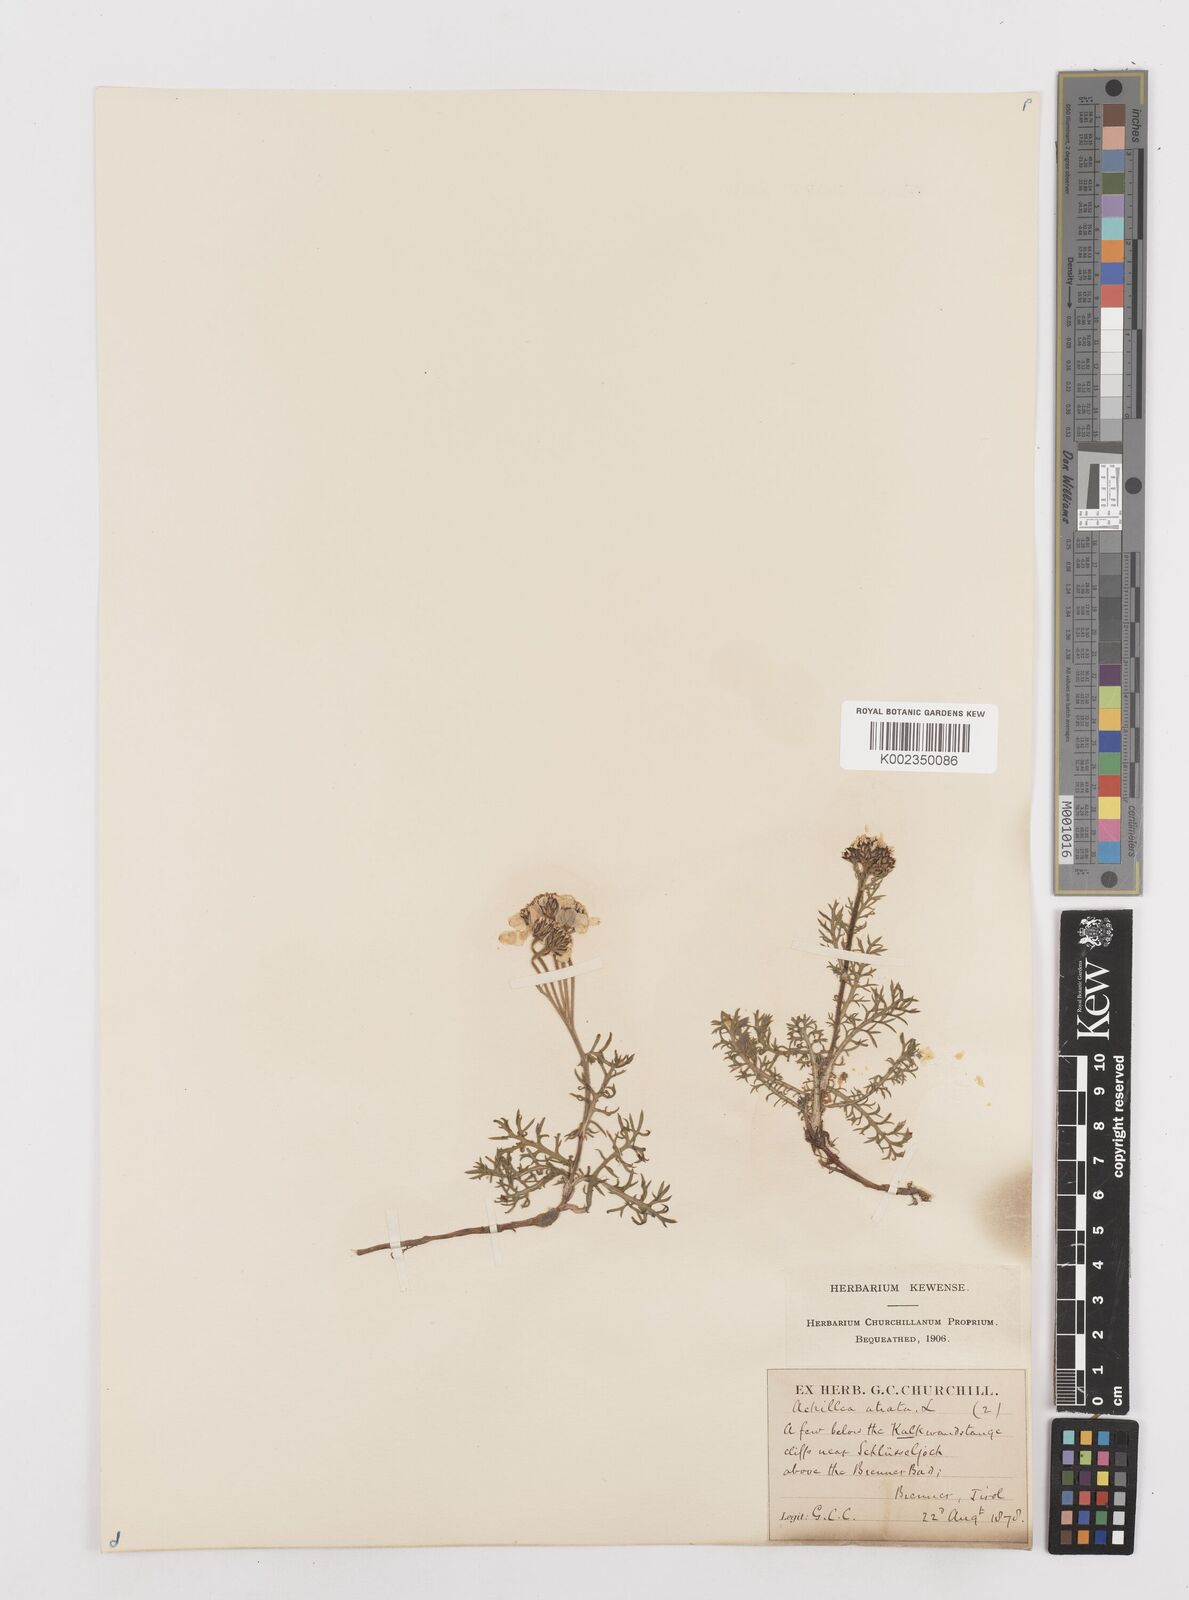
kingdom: Plantae
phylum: Tracheophyta
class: Magnoliopsida
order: Asterales
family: Asteraceae
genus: Achillea
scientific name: Achillea atrata
